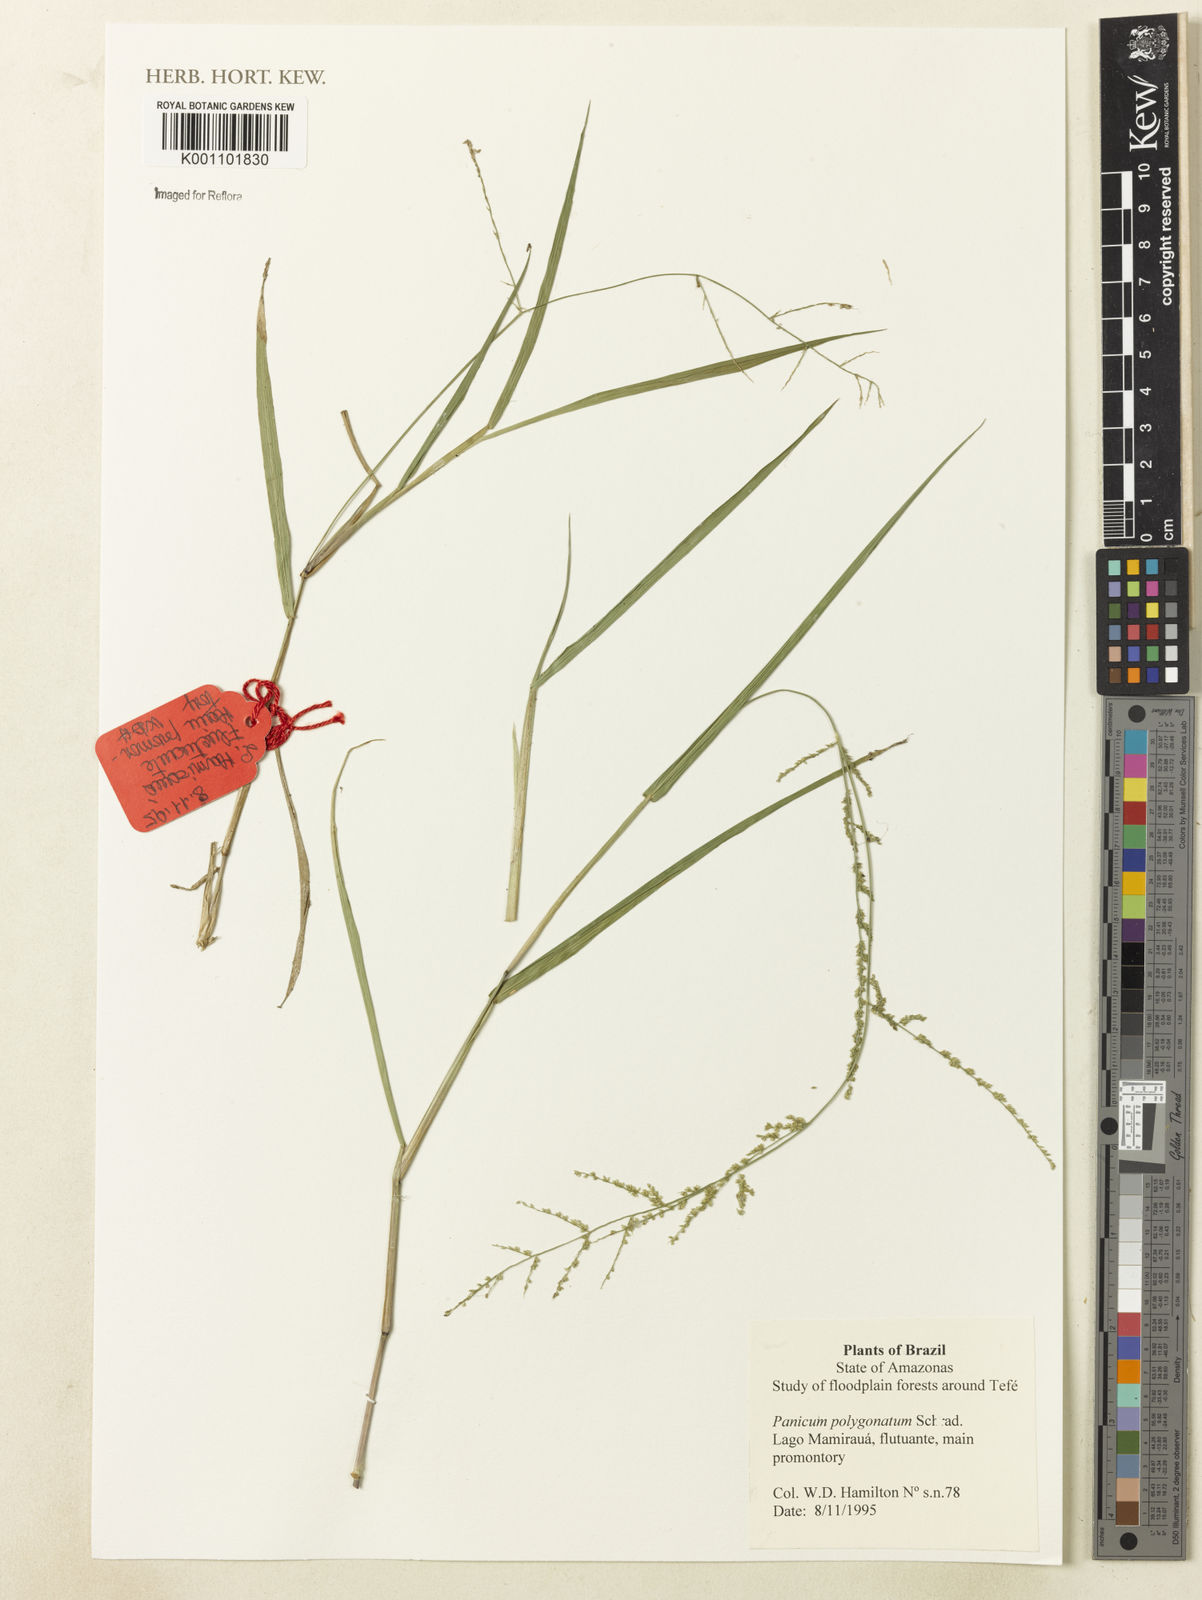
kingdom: Plantae
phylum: Tracheophyta
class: Liliopsida
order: Poales
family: Poaceae
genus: Rugoloa
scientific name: Rugoloa polygonata
